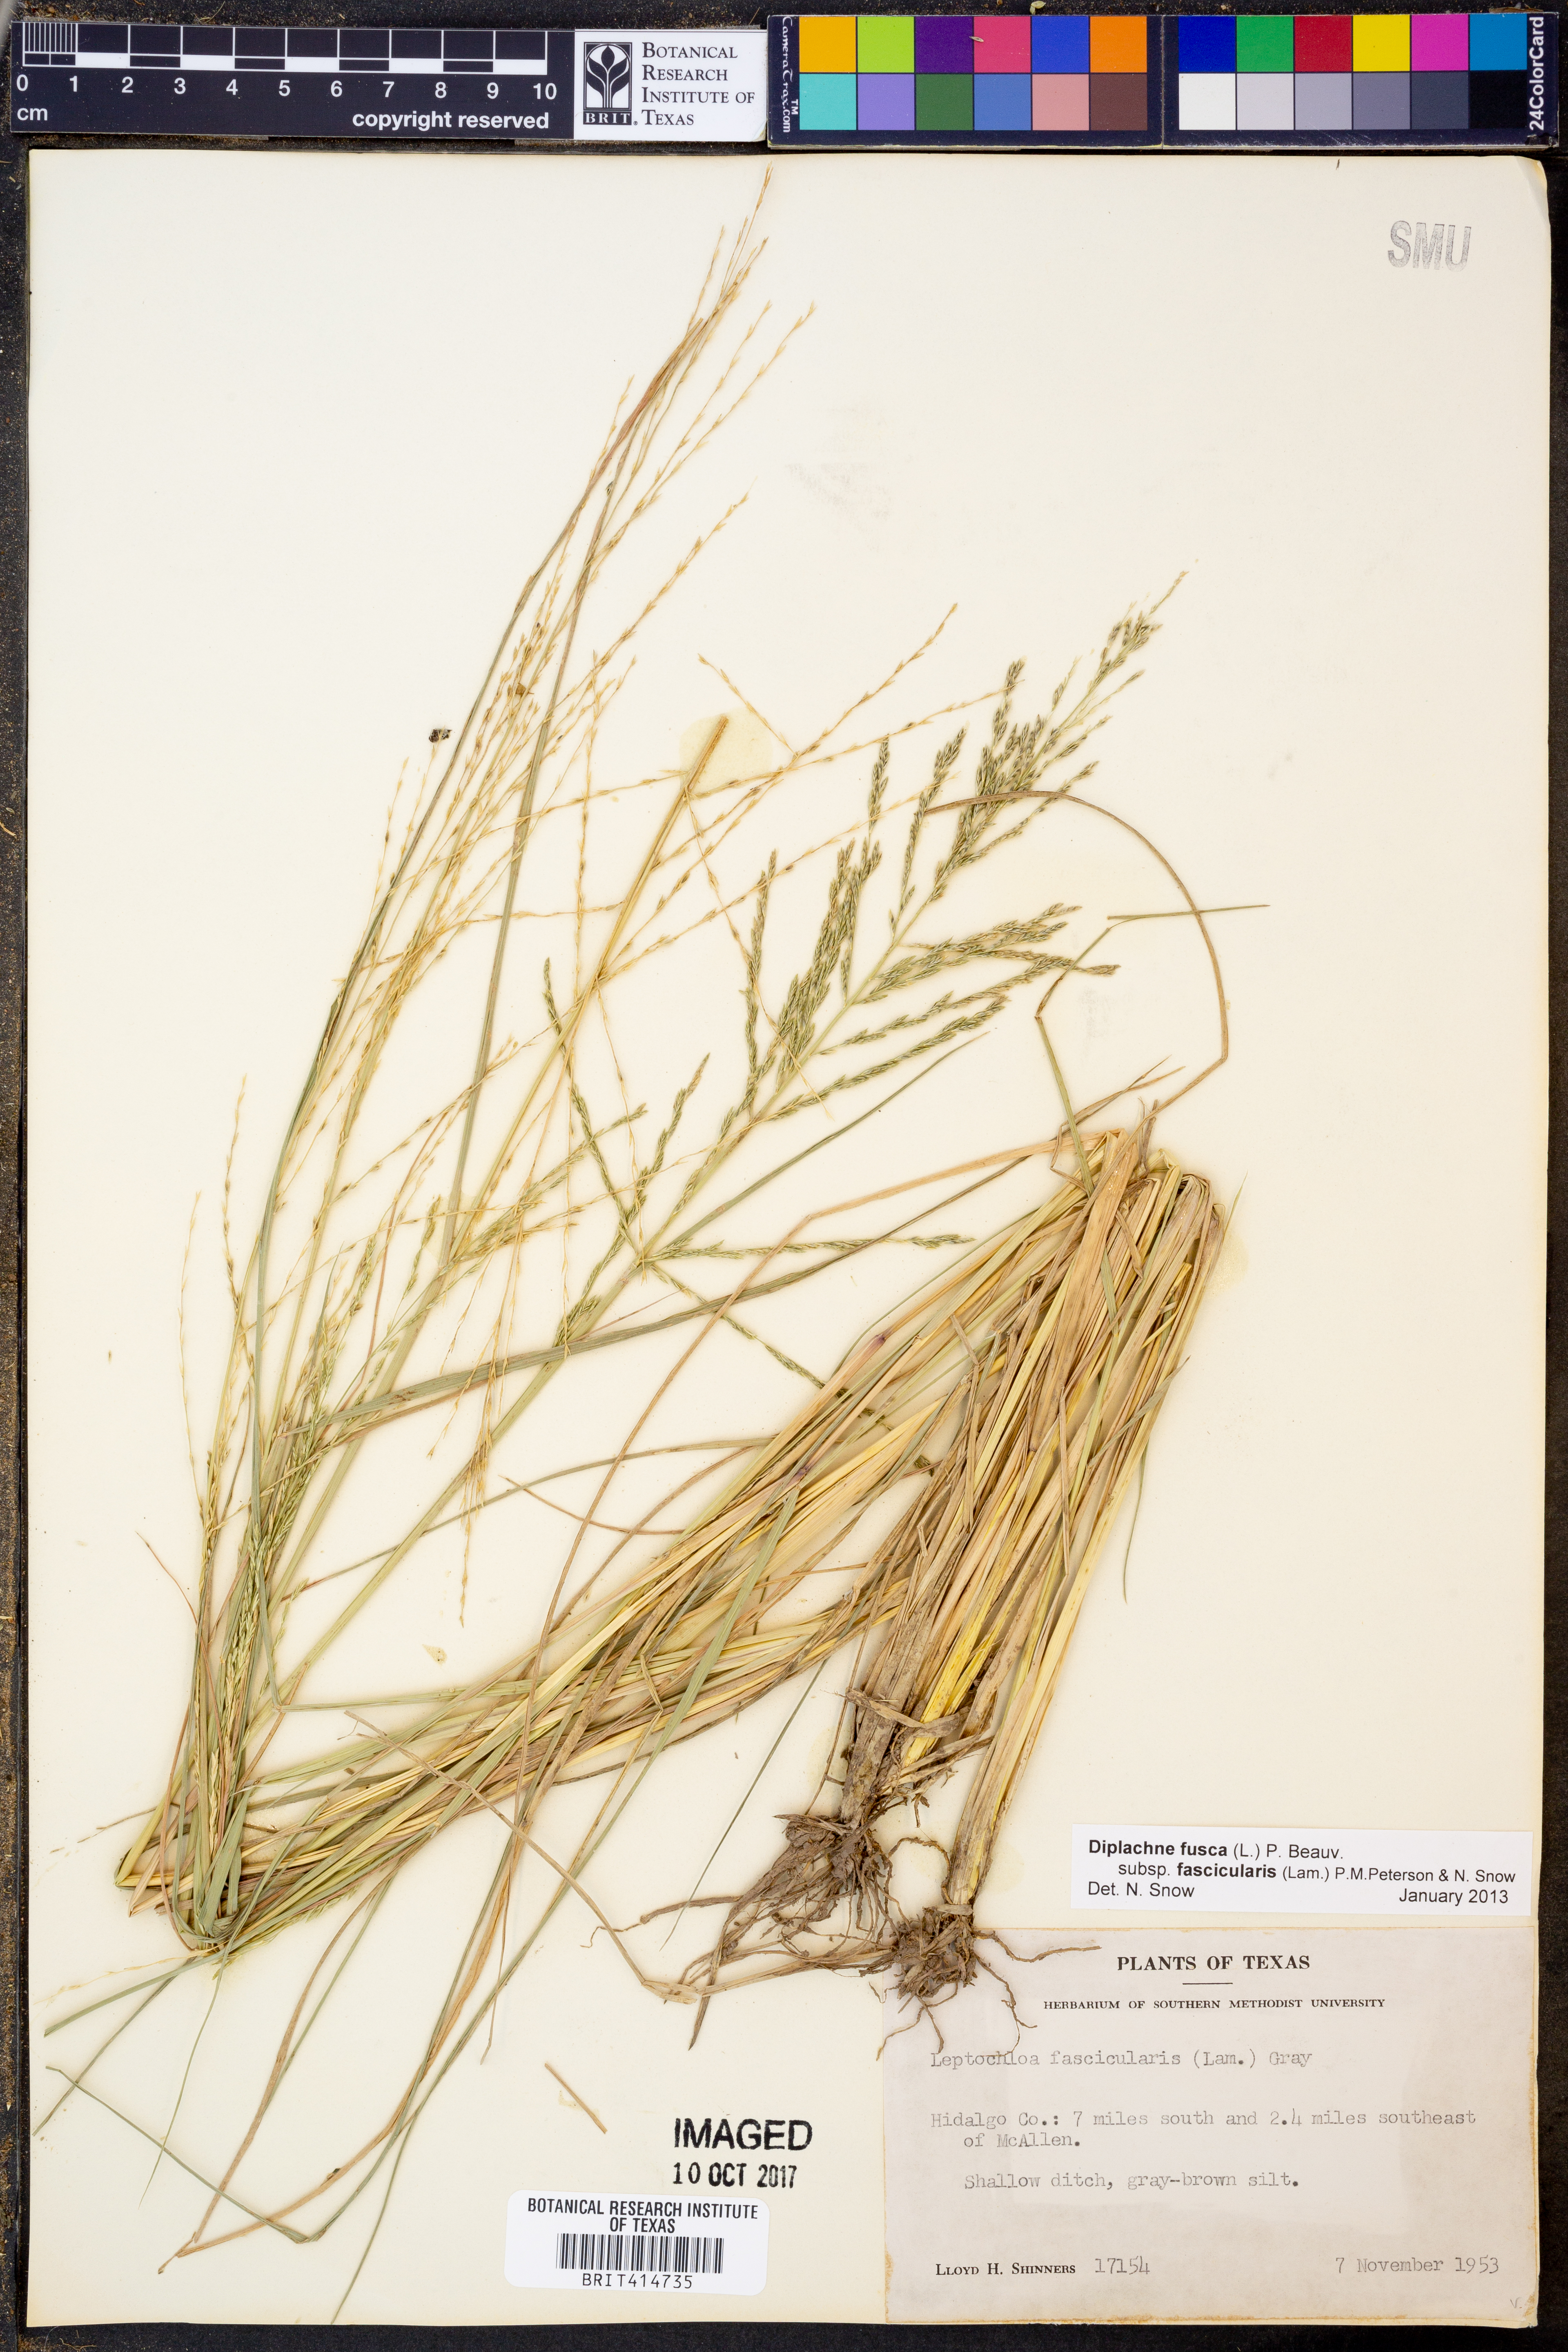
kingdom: Plantae
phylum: Tracheophyta
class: Liliopsida
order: Poales
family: Poaceae
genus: Diplachne
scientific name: Diplachne fusca
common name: Brown beetle grass
